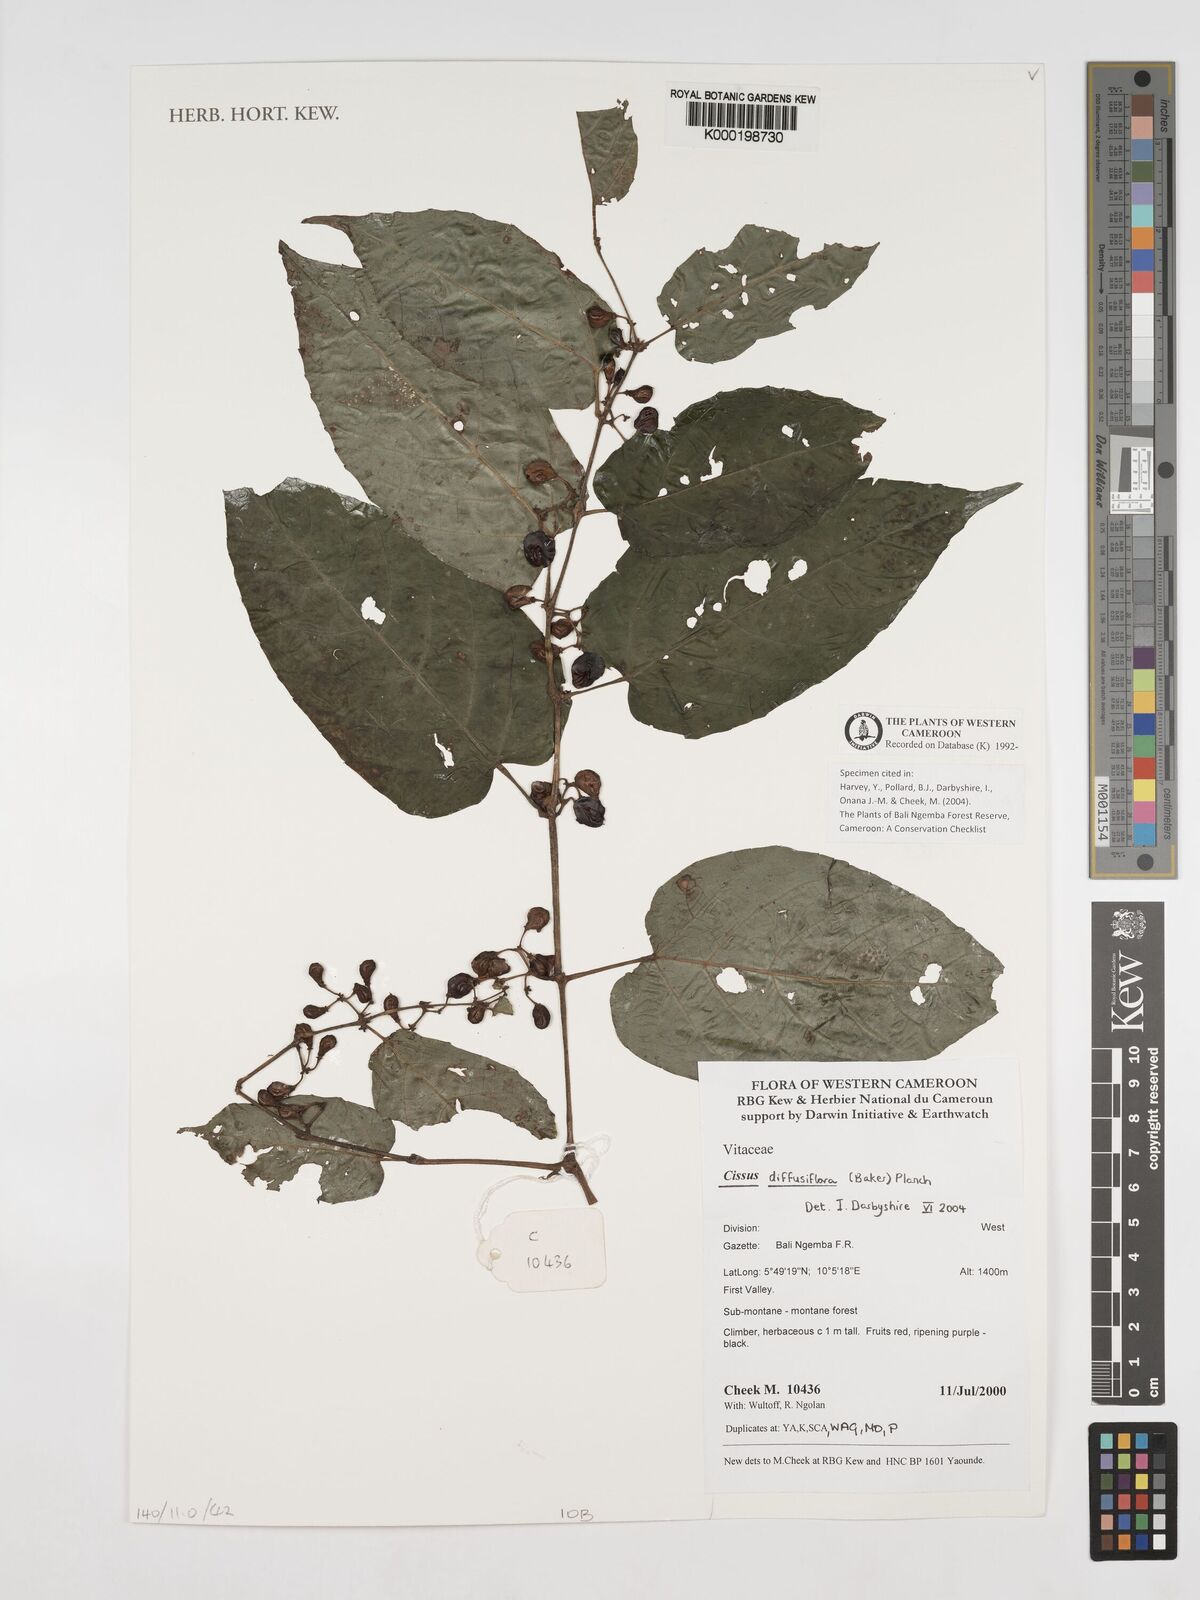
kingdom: Plantae
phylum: Tracheophyta
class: Magnoliopsida
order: Vitales
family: Vitaceae
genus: Cissus
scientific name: Cissus diffusiflora
